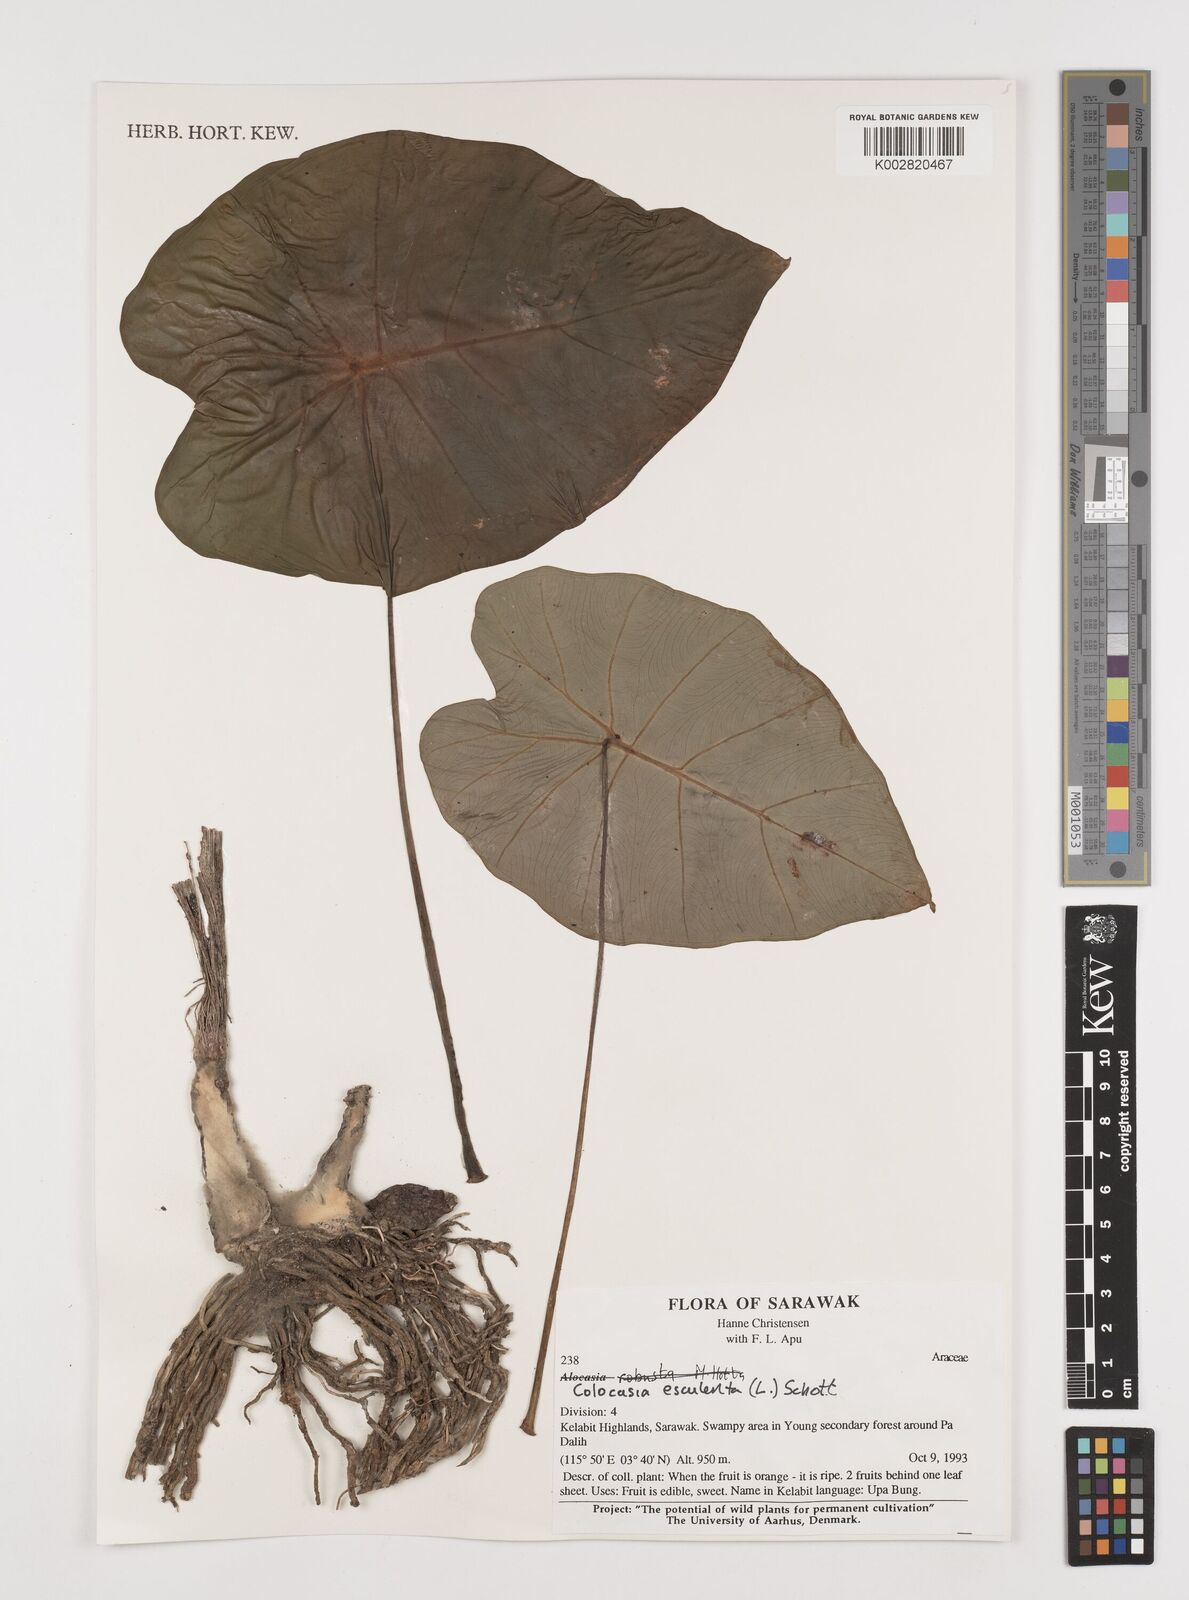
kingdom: Plantae
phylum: Tracheophyta
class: Liliopsida
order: Alismatales
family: Araceae
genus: Colocasia
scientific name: Colocasia esculenta
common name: Taro
